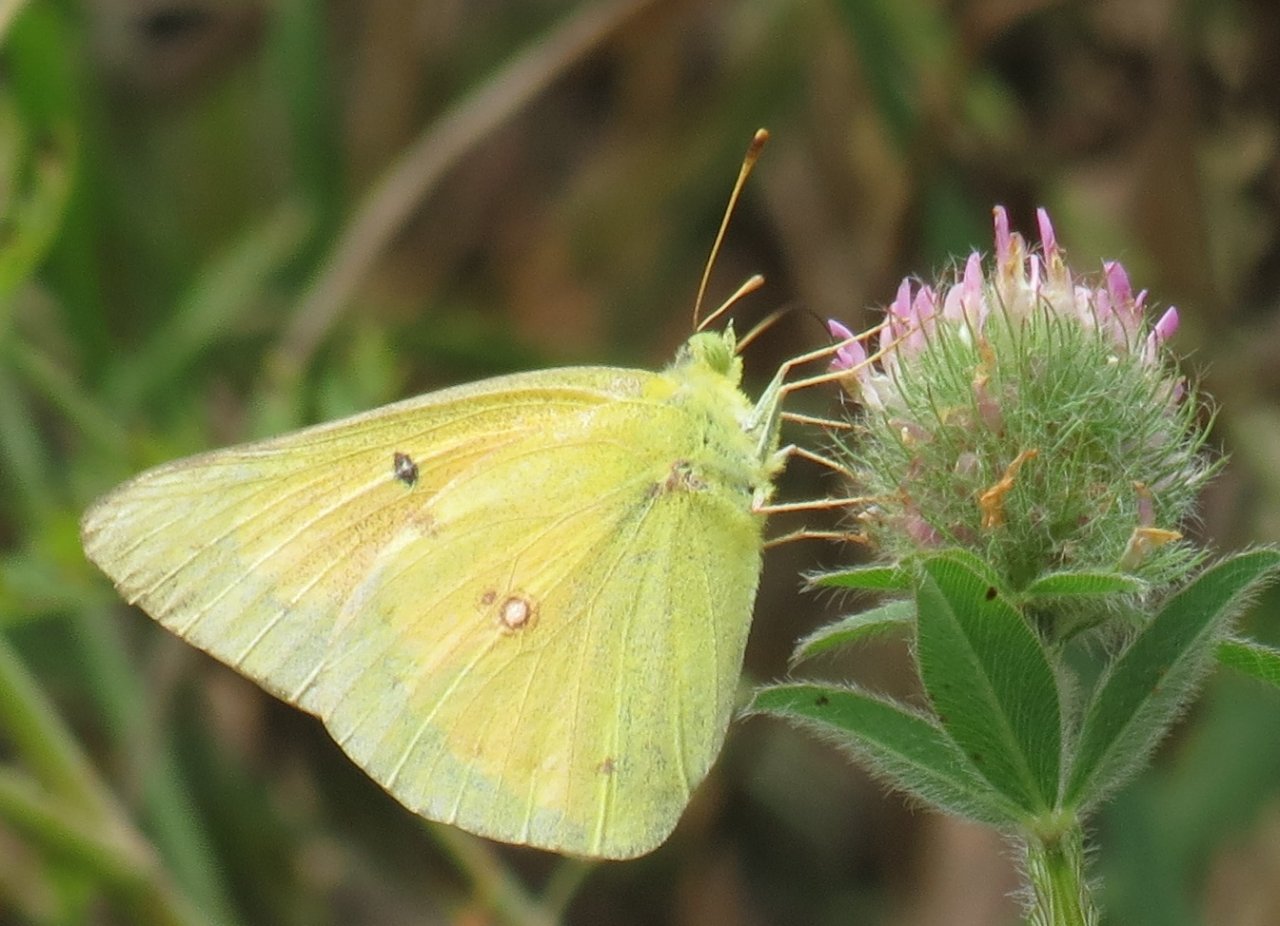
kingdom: Animalia
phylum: Arthropoda
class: Insecta
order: Lepidoptera
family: Pieridae
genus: Colias
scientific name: Colias eurytheme
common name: Orange Sulphur
